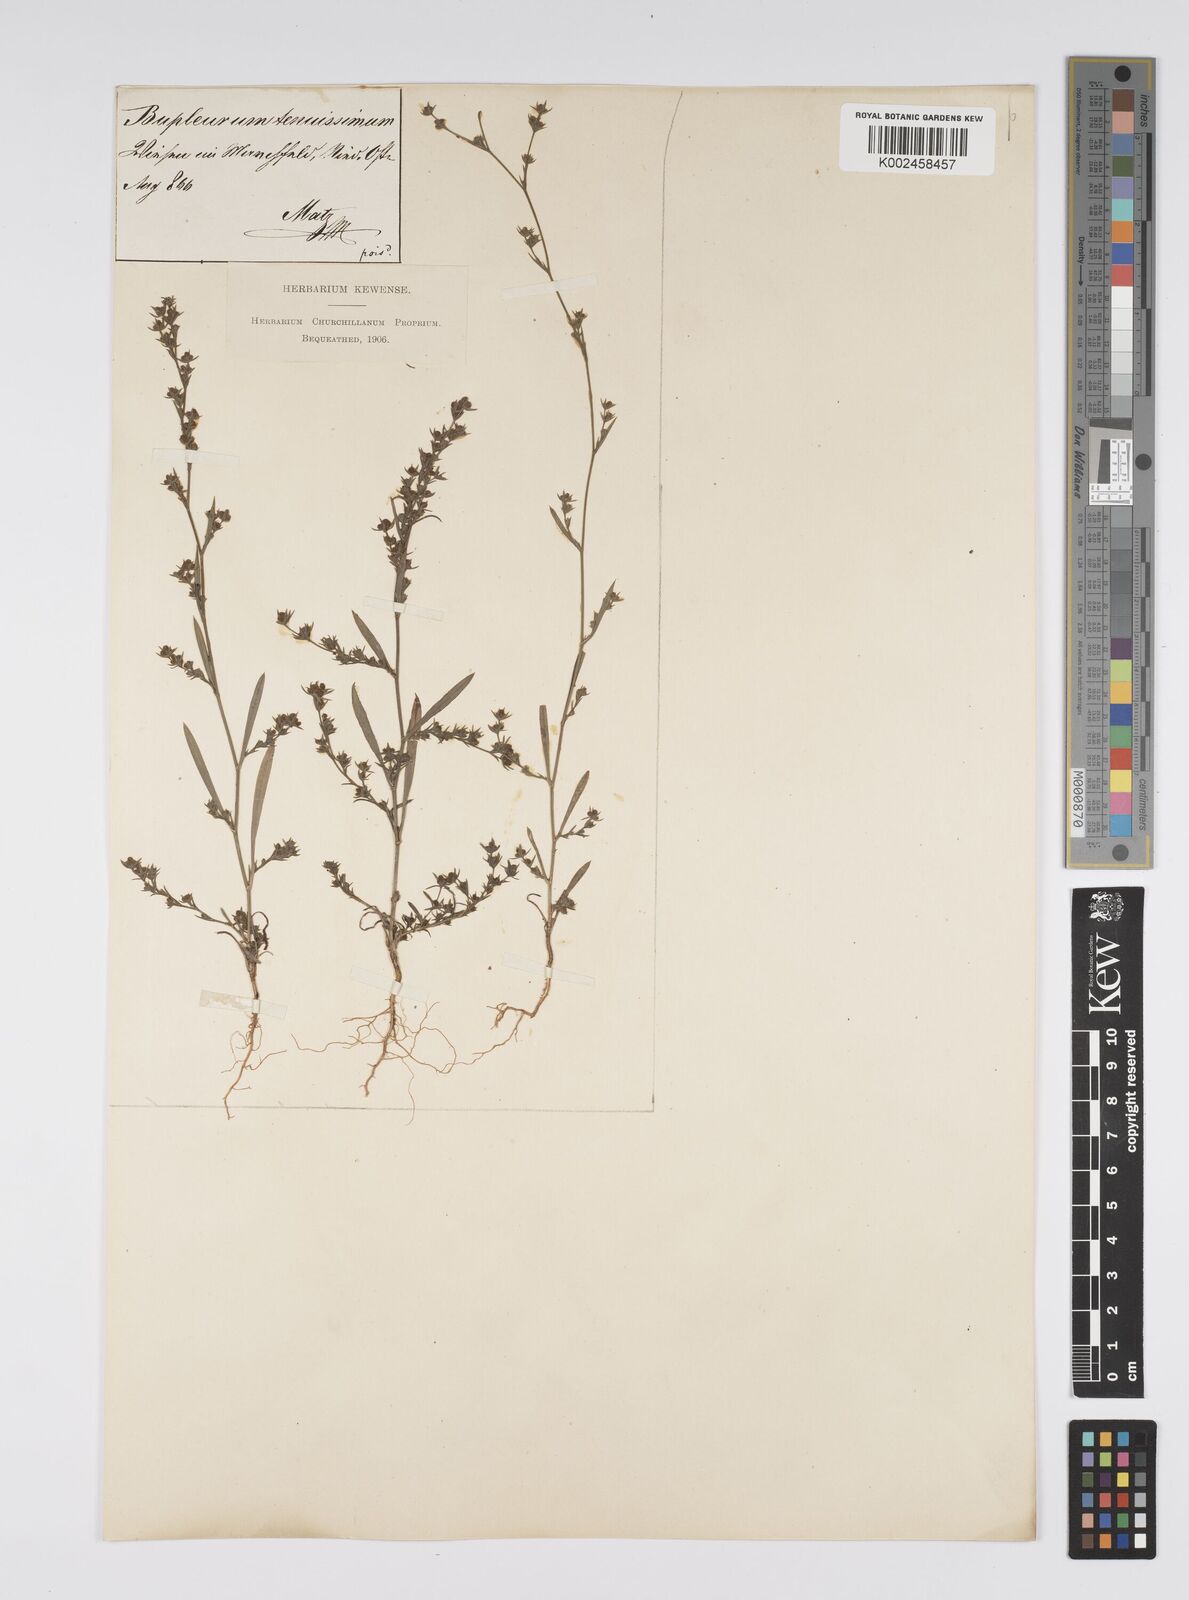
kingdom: Plantae
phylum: Tracheophyta
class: Magnoliopsida
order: Apiales
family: Apiaceae
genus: Bupleurum
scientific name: Bupleurum tenuissimum
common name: Slender hare's-ear
